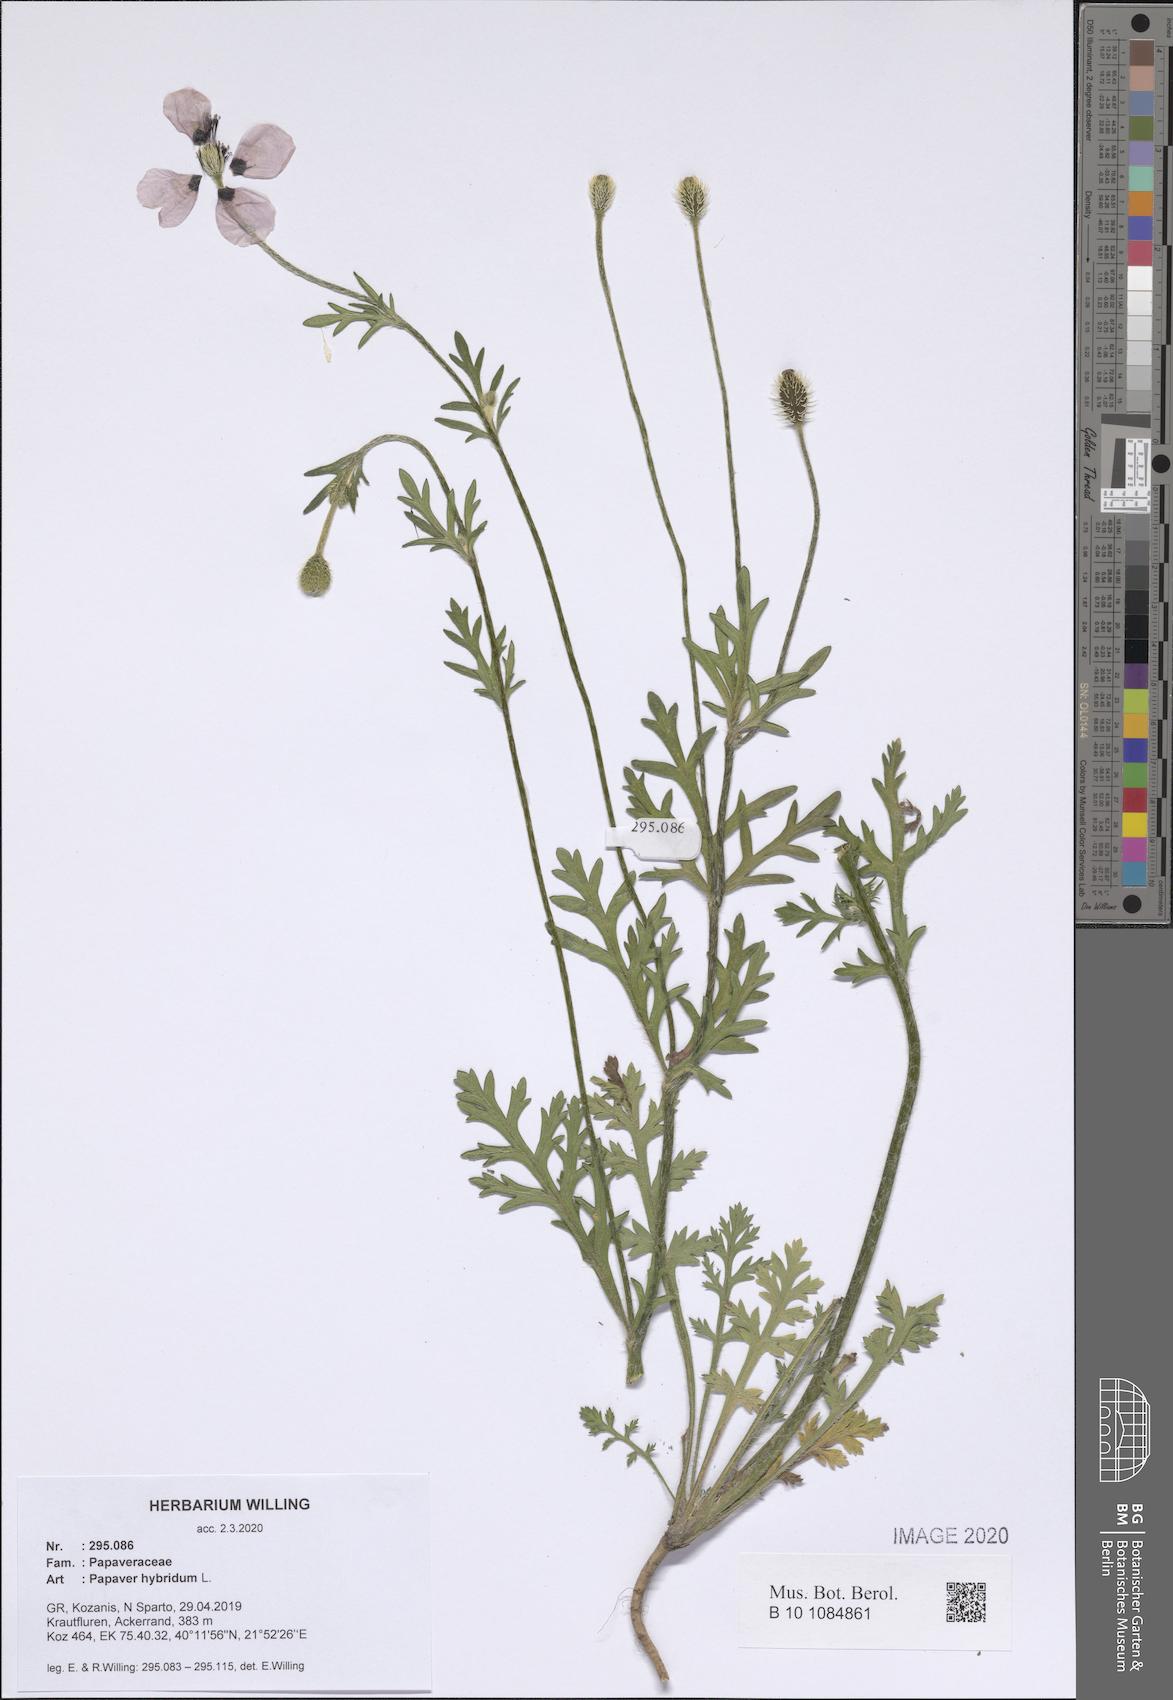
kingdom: Plantae
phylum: Tracheophyta
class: Magnoliopsida
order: Ranunculales
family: Papaveraceae
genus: Roemeria
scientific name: Roemeria hispida
